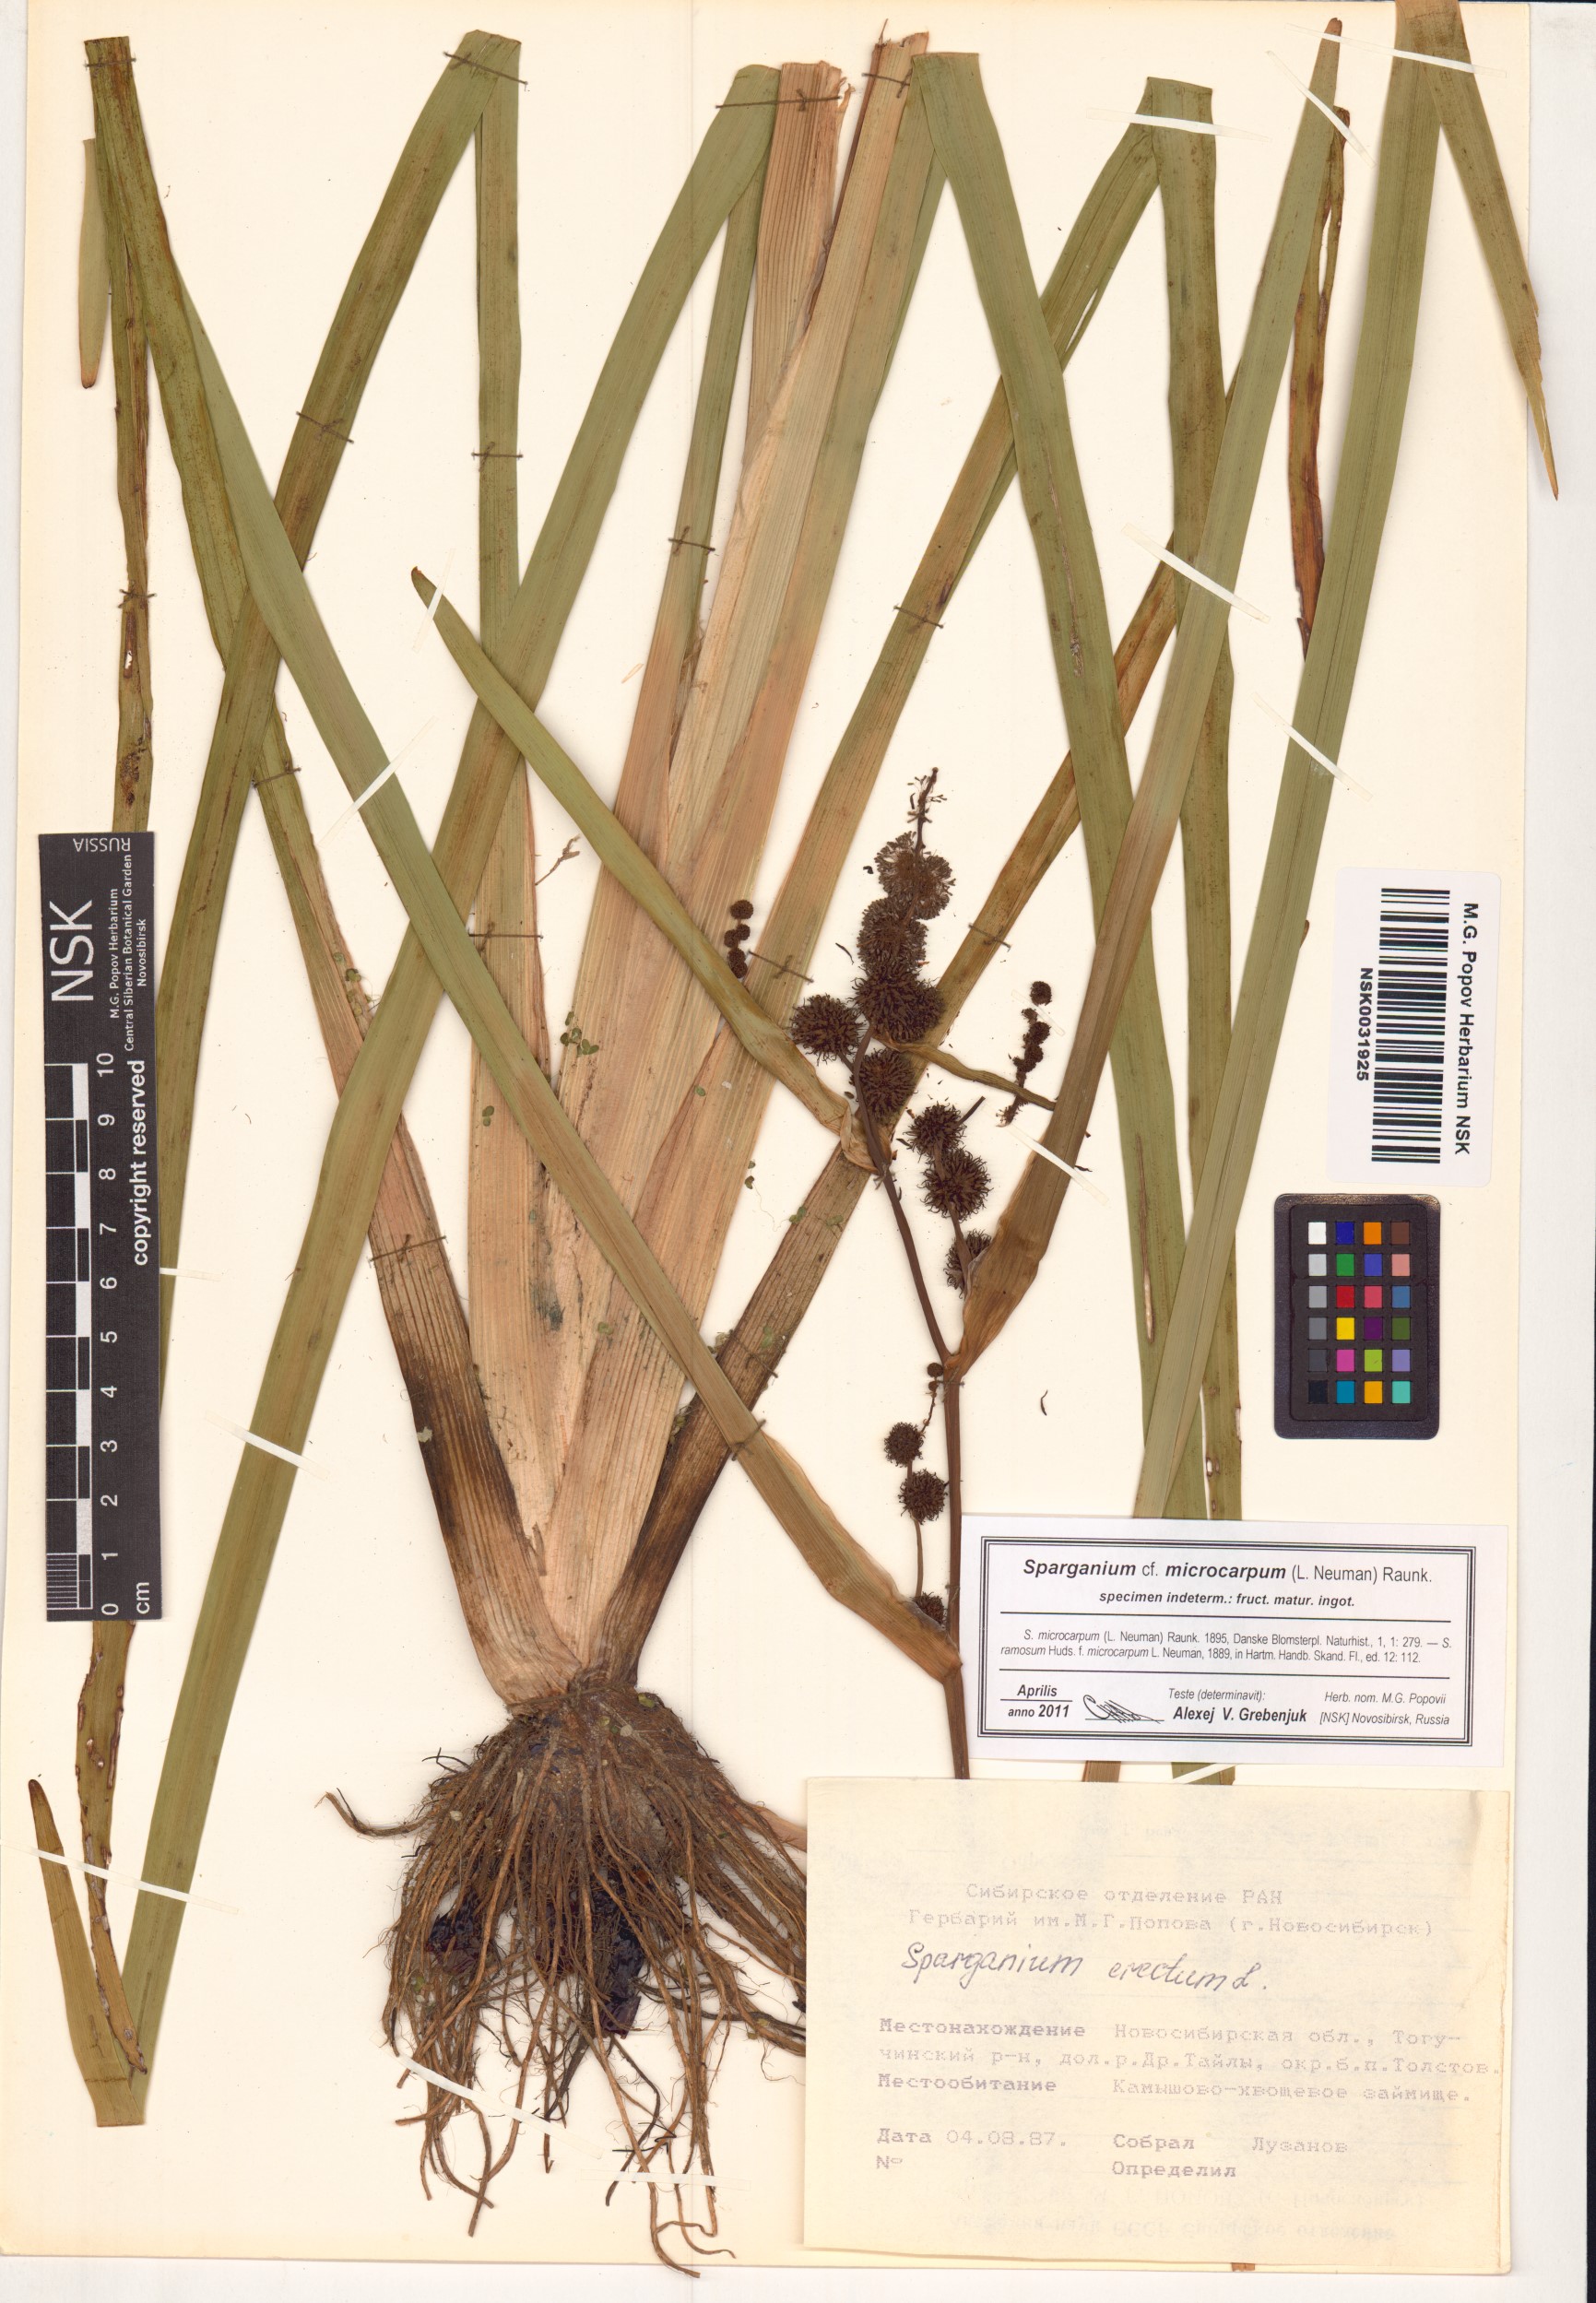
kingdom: Plantae
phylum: Tracheophyta
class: Liliopsida
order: Poales
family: Typhaceae
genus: Sparganium
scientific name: Sparganium erectum
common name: Branched bur-reed
